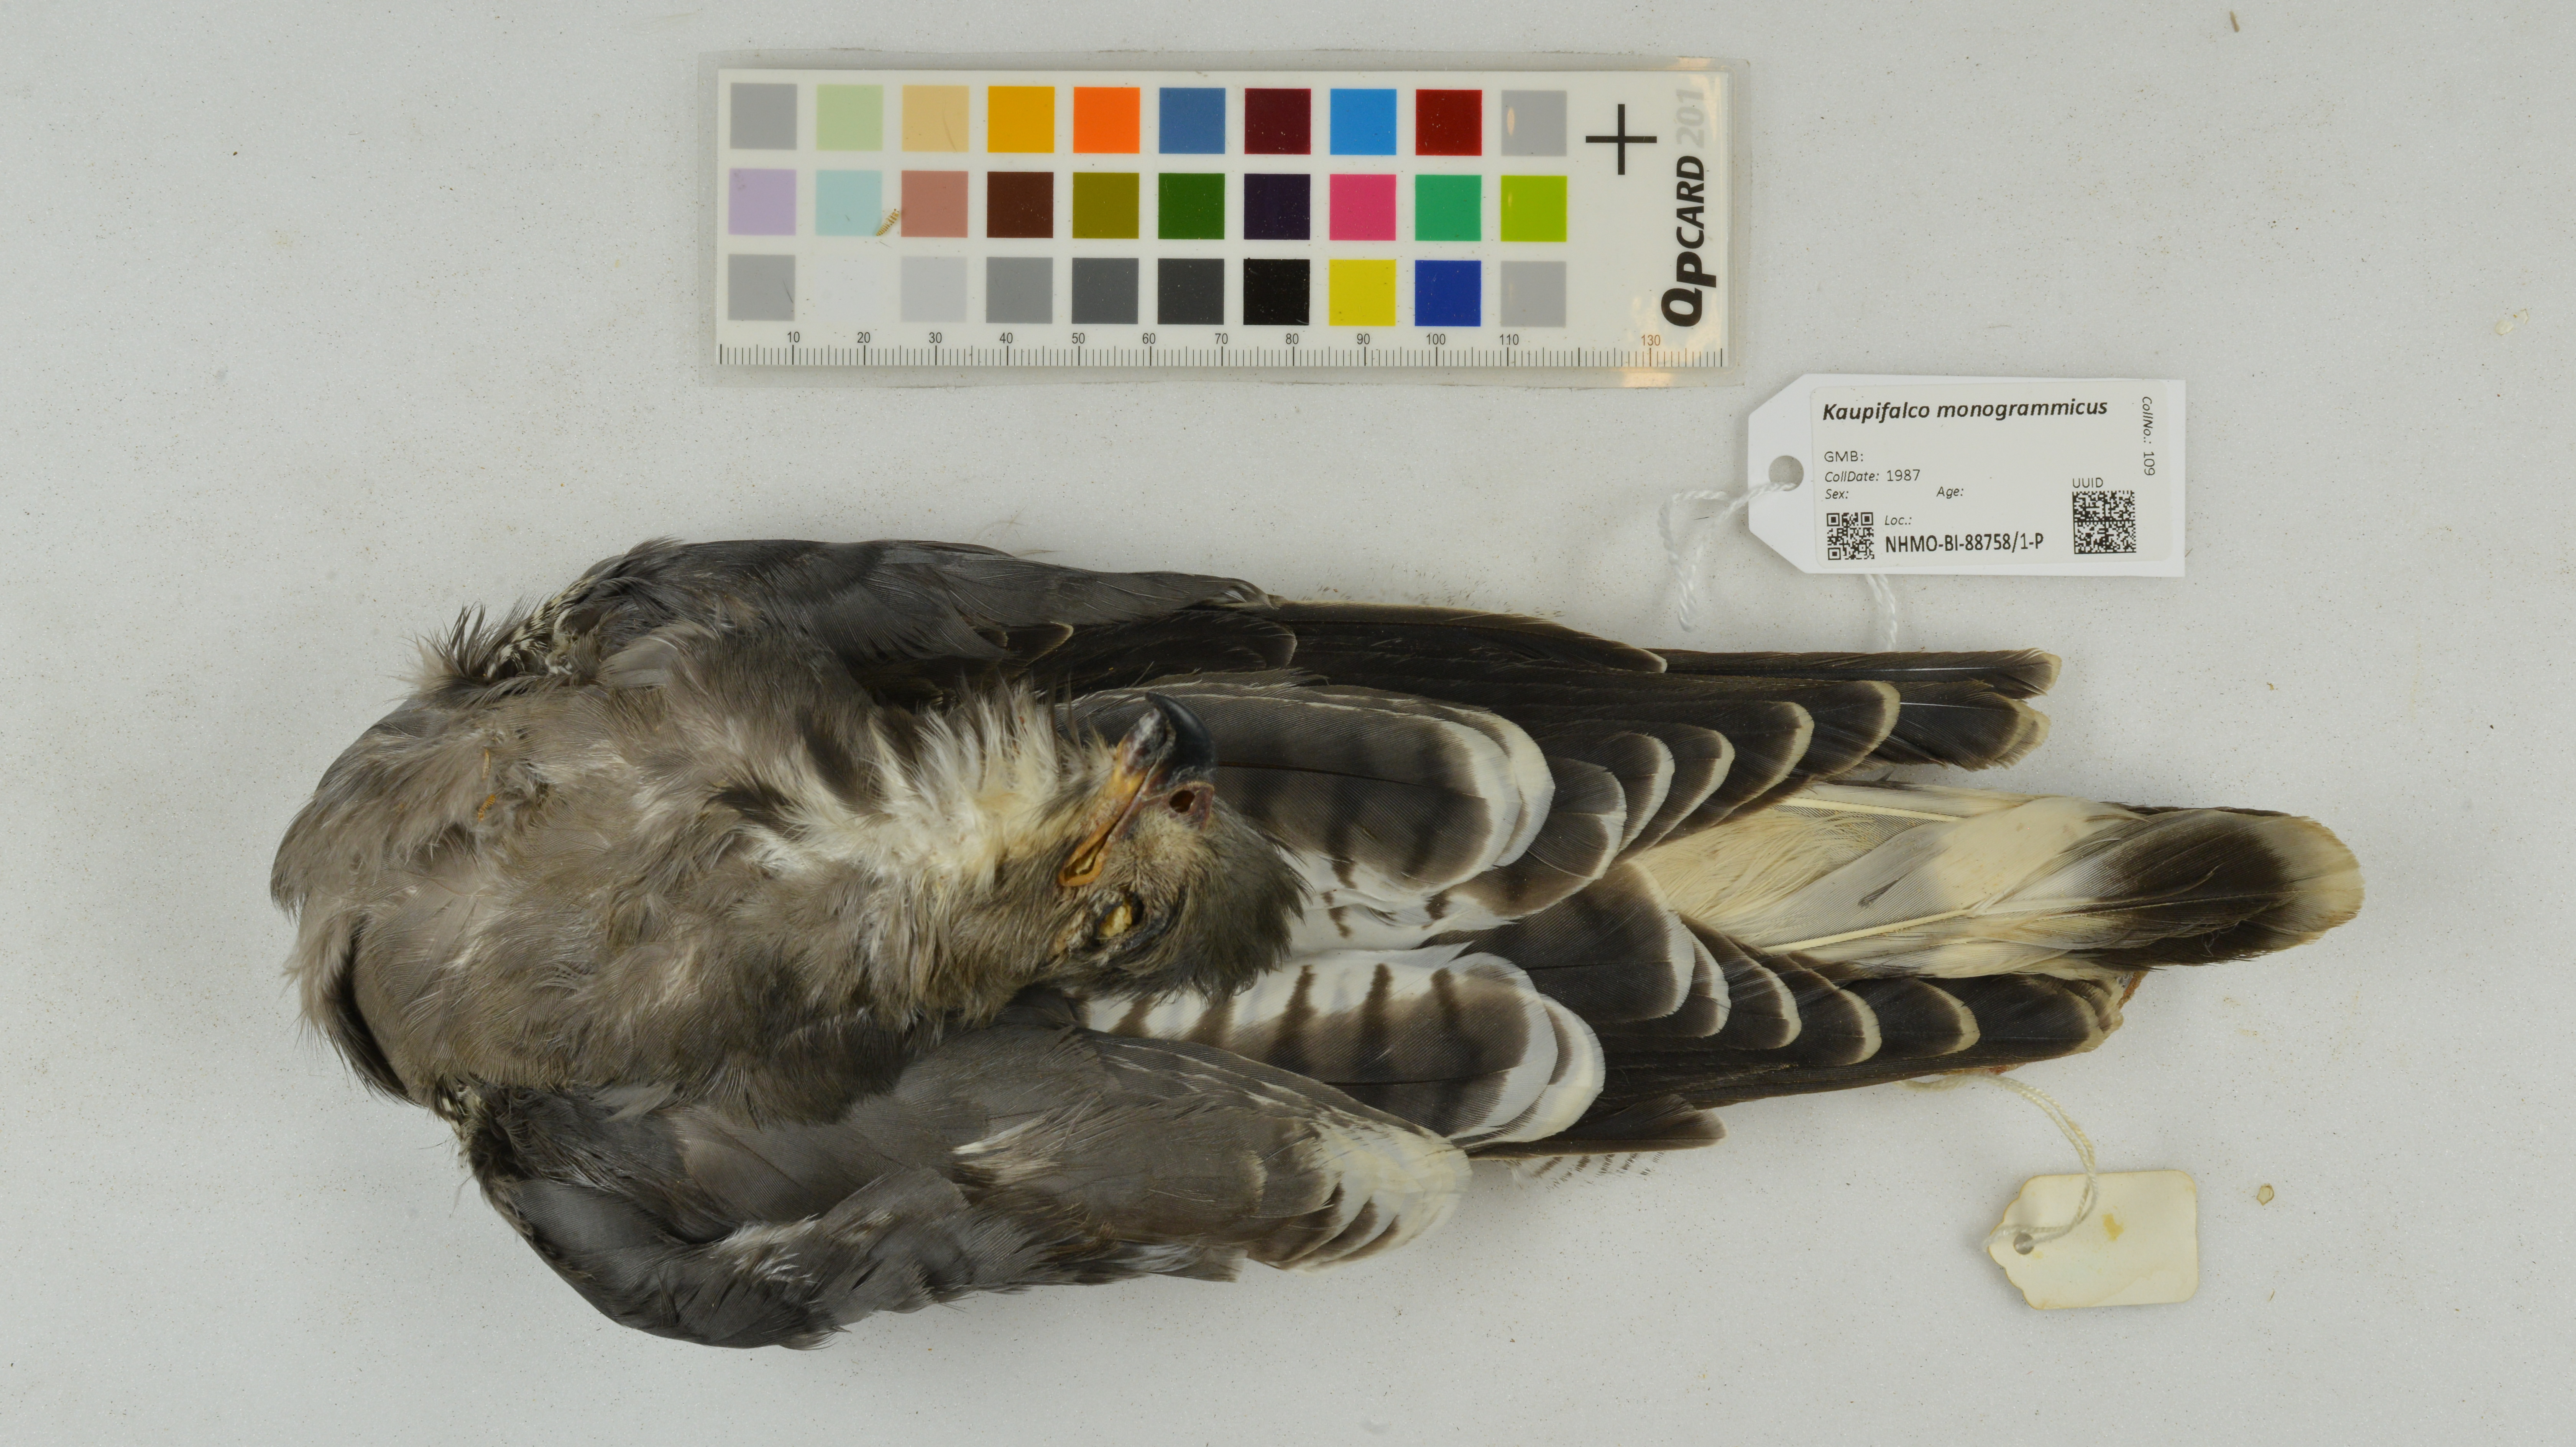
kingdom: Animalia
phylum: Chordata
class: Aves
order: Accipitriformes
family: Accipitridae
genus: Kaupifalco
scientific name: Kaupifalco monogrammicus
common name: Lizard buzzard
